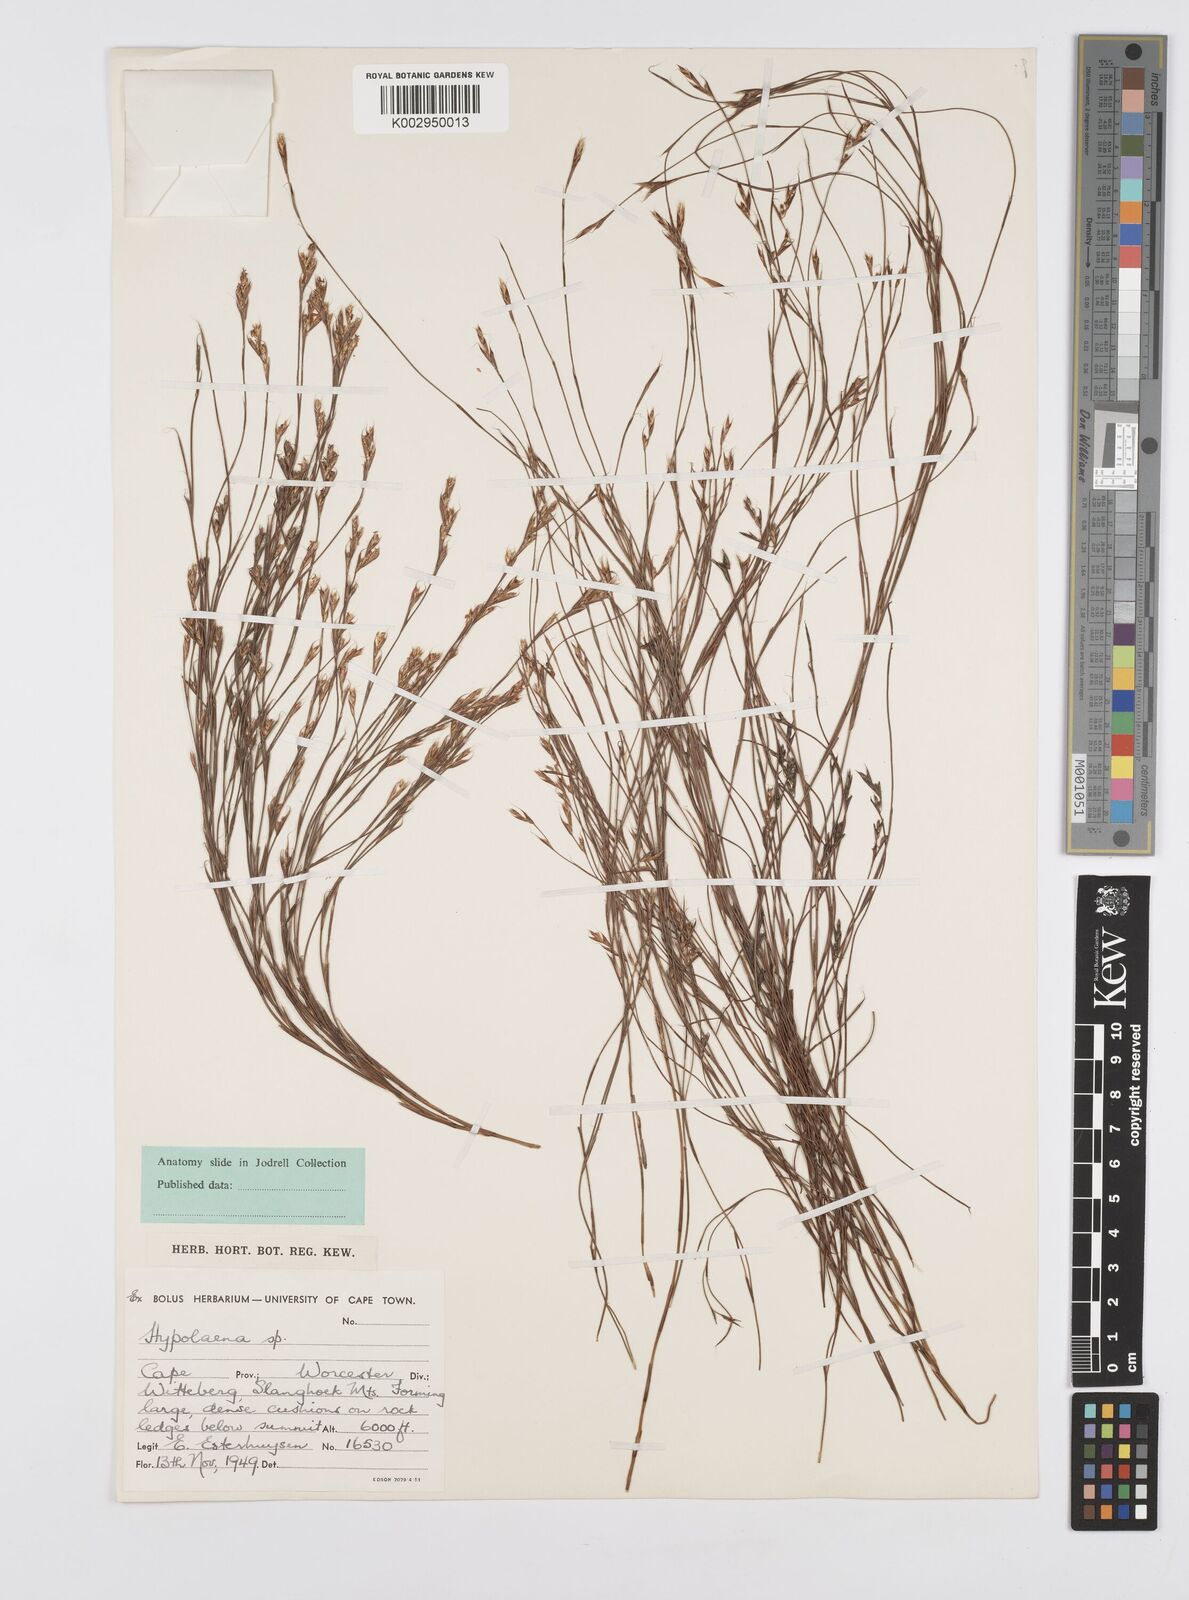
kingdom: Plantae
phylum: Tracheophyta
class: Liliopsida
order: Poales
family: Restionaceae
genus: Anthochortus
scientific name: Anthochortus
